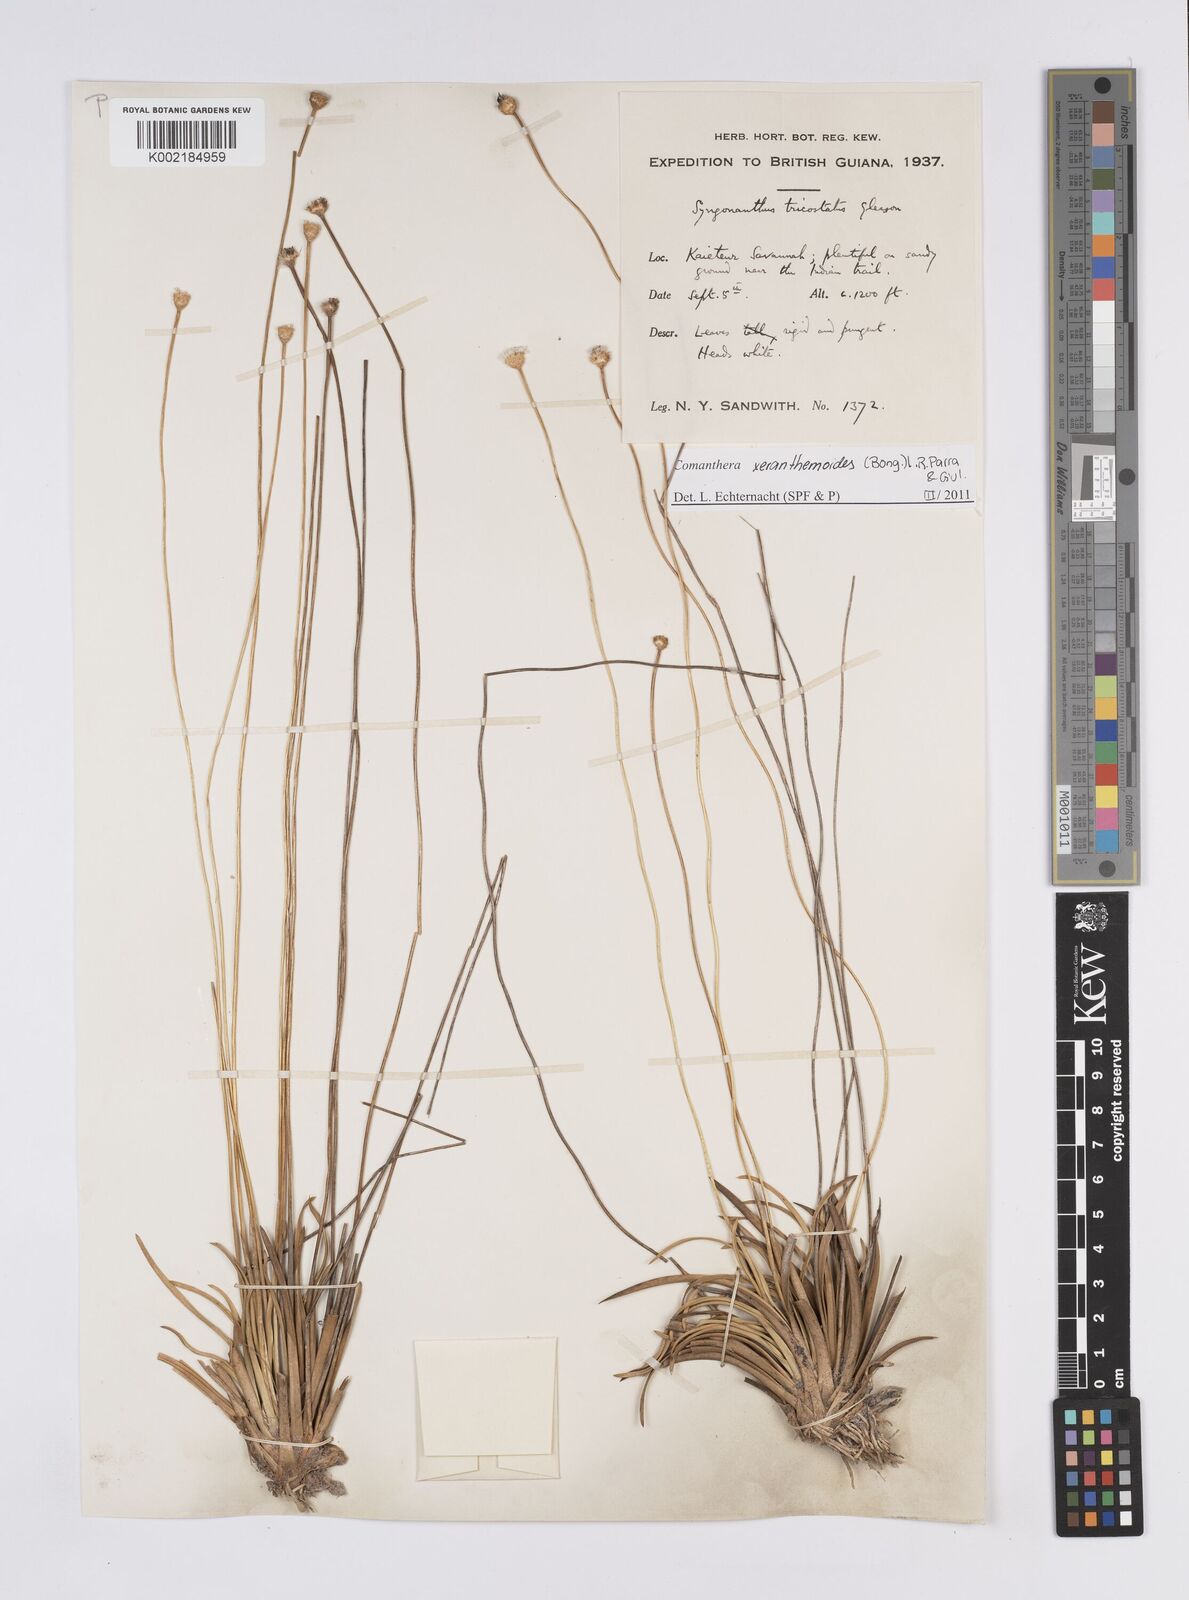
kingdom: Plantae
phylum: Tracheophyta
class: Liliopsida
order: Poales
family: Eriocaulaceae
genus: Comanthera
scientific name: Comanthera xeranthemoides
